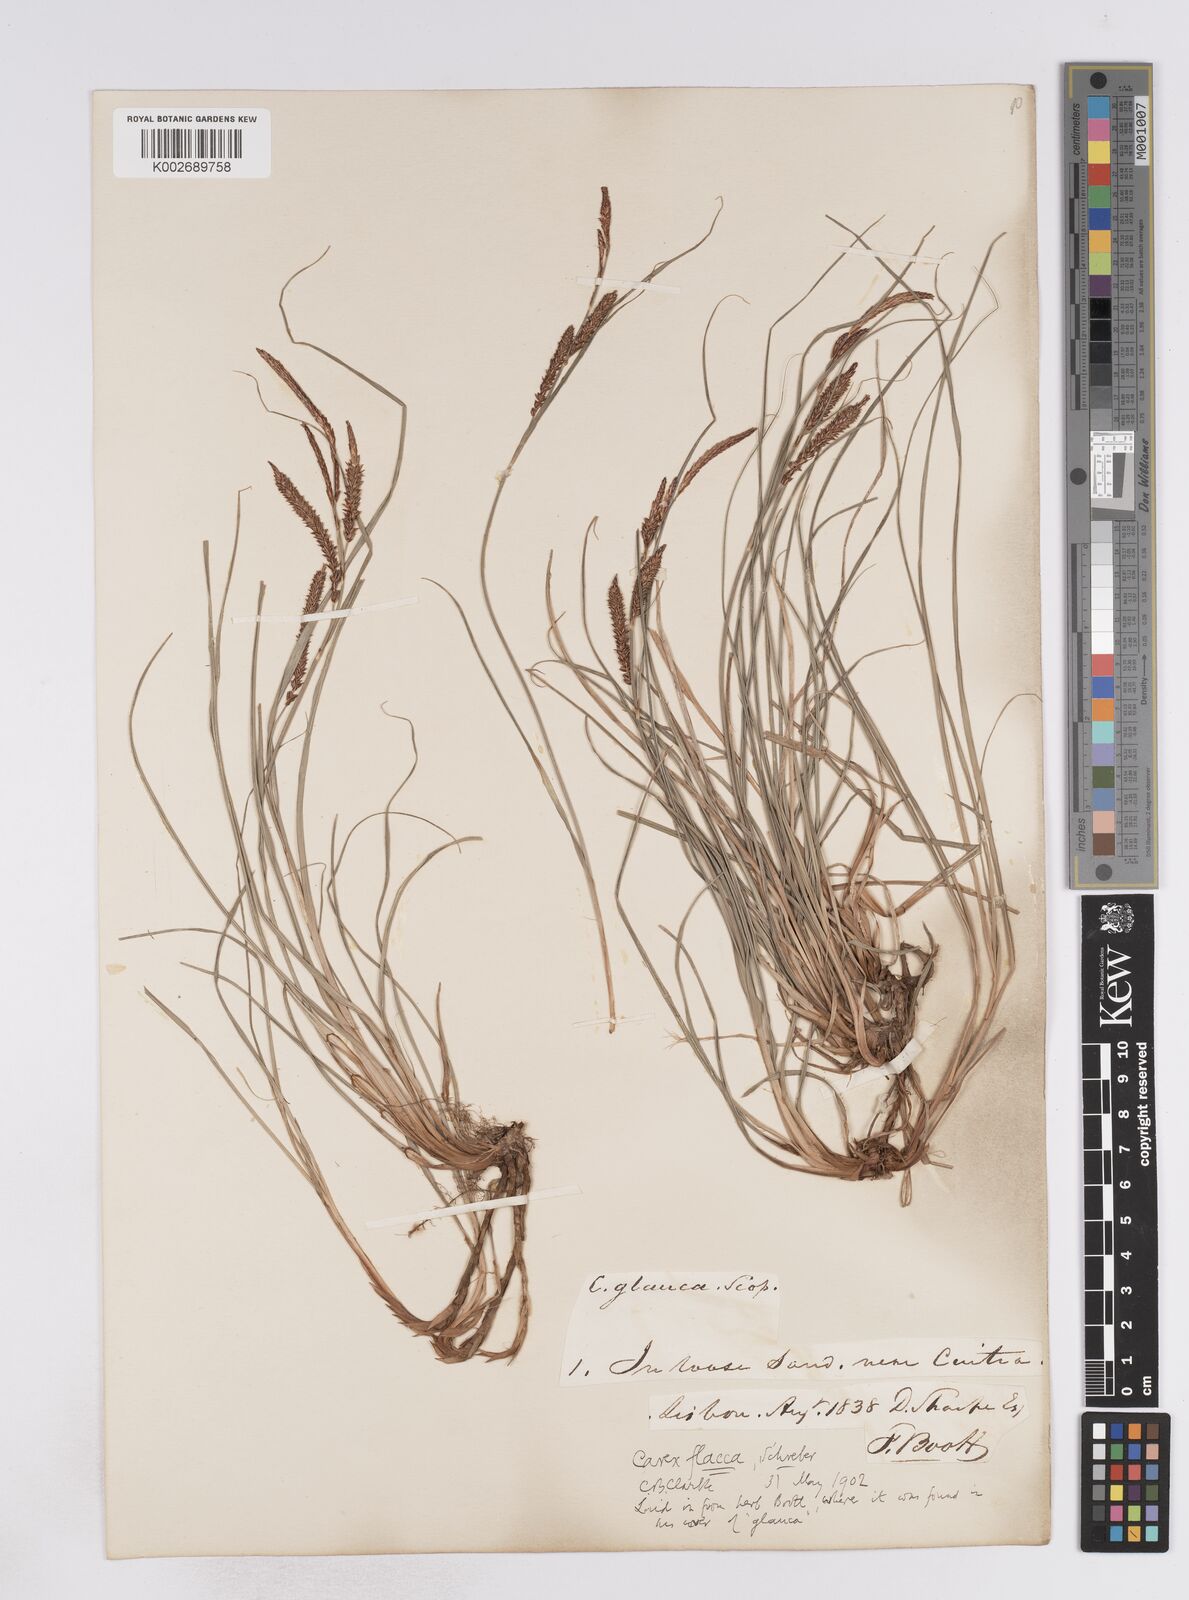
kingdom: Plantae
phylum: Tracheophyta
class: Liliopsida
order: Poales
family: Cyperaceae
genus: Carex
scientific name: Carex flacca
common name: Glaucous sedge
